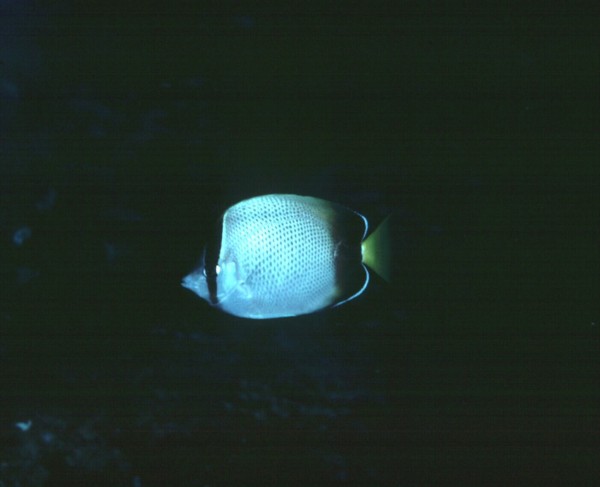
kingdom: Animalia
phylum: Chordata
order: Perciformes
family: Chaetodontidae
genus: Chaetodon
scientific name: Chaetodon dolosus
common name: African butterflyfish
